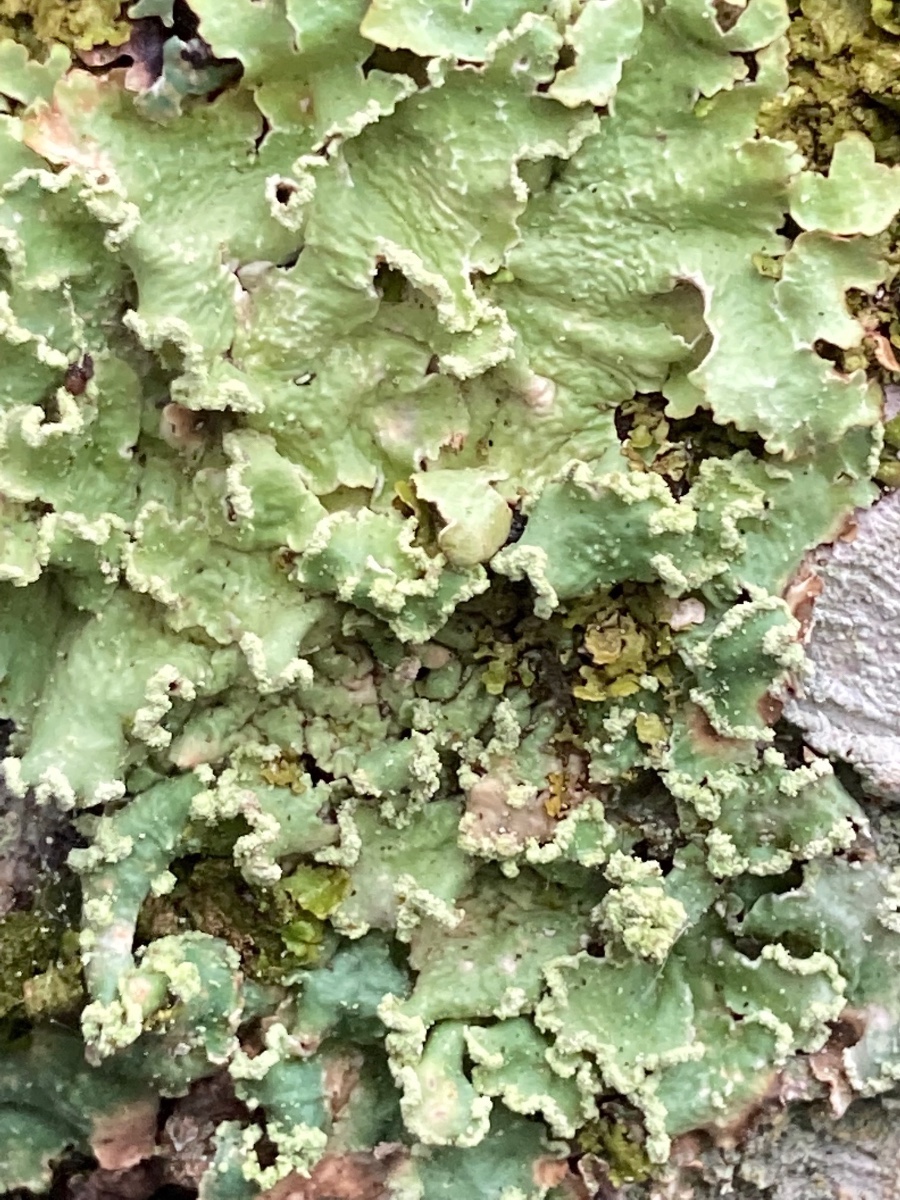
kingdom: Fungi
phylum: Ascomycota
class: Lecanoromycetes
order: Lecanorales
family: Parmeliaceae
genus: Punctelia
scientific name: Punctelia jeckeri
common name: randstøvet skållav
